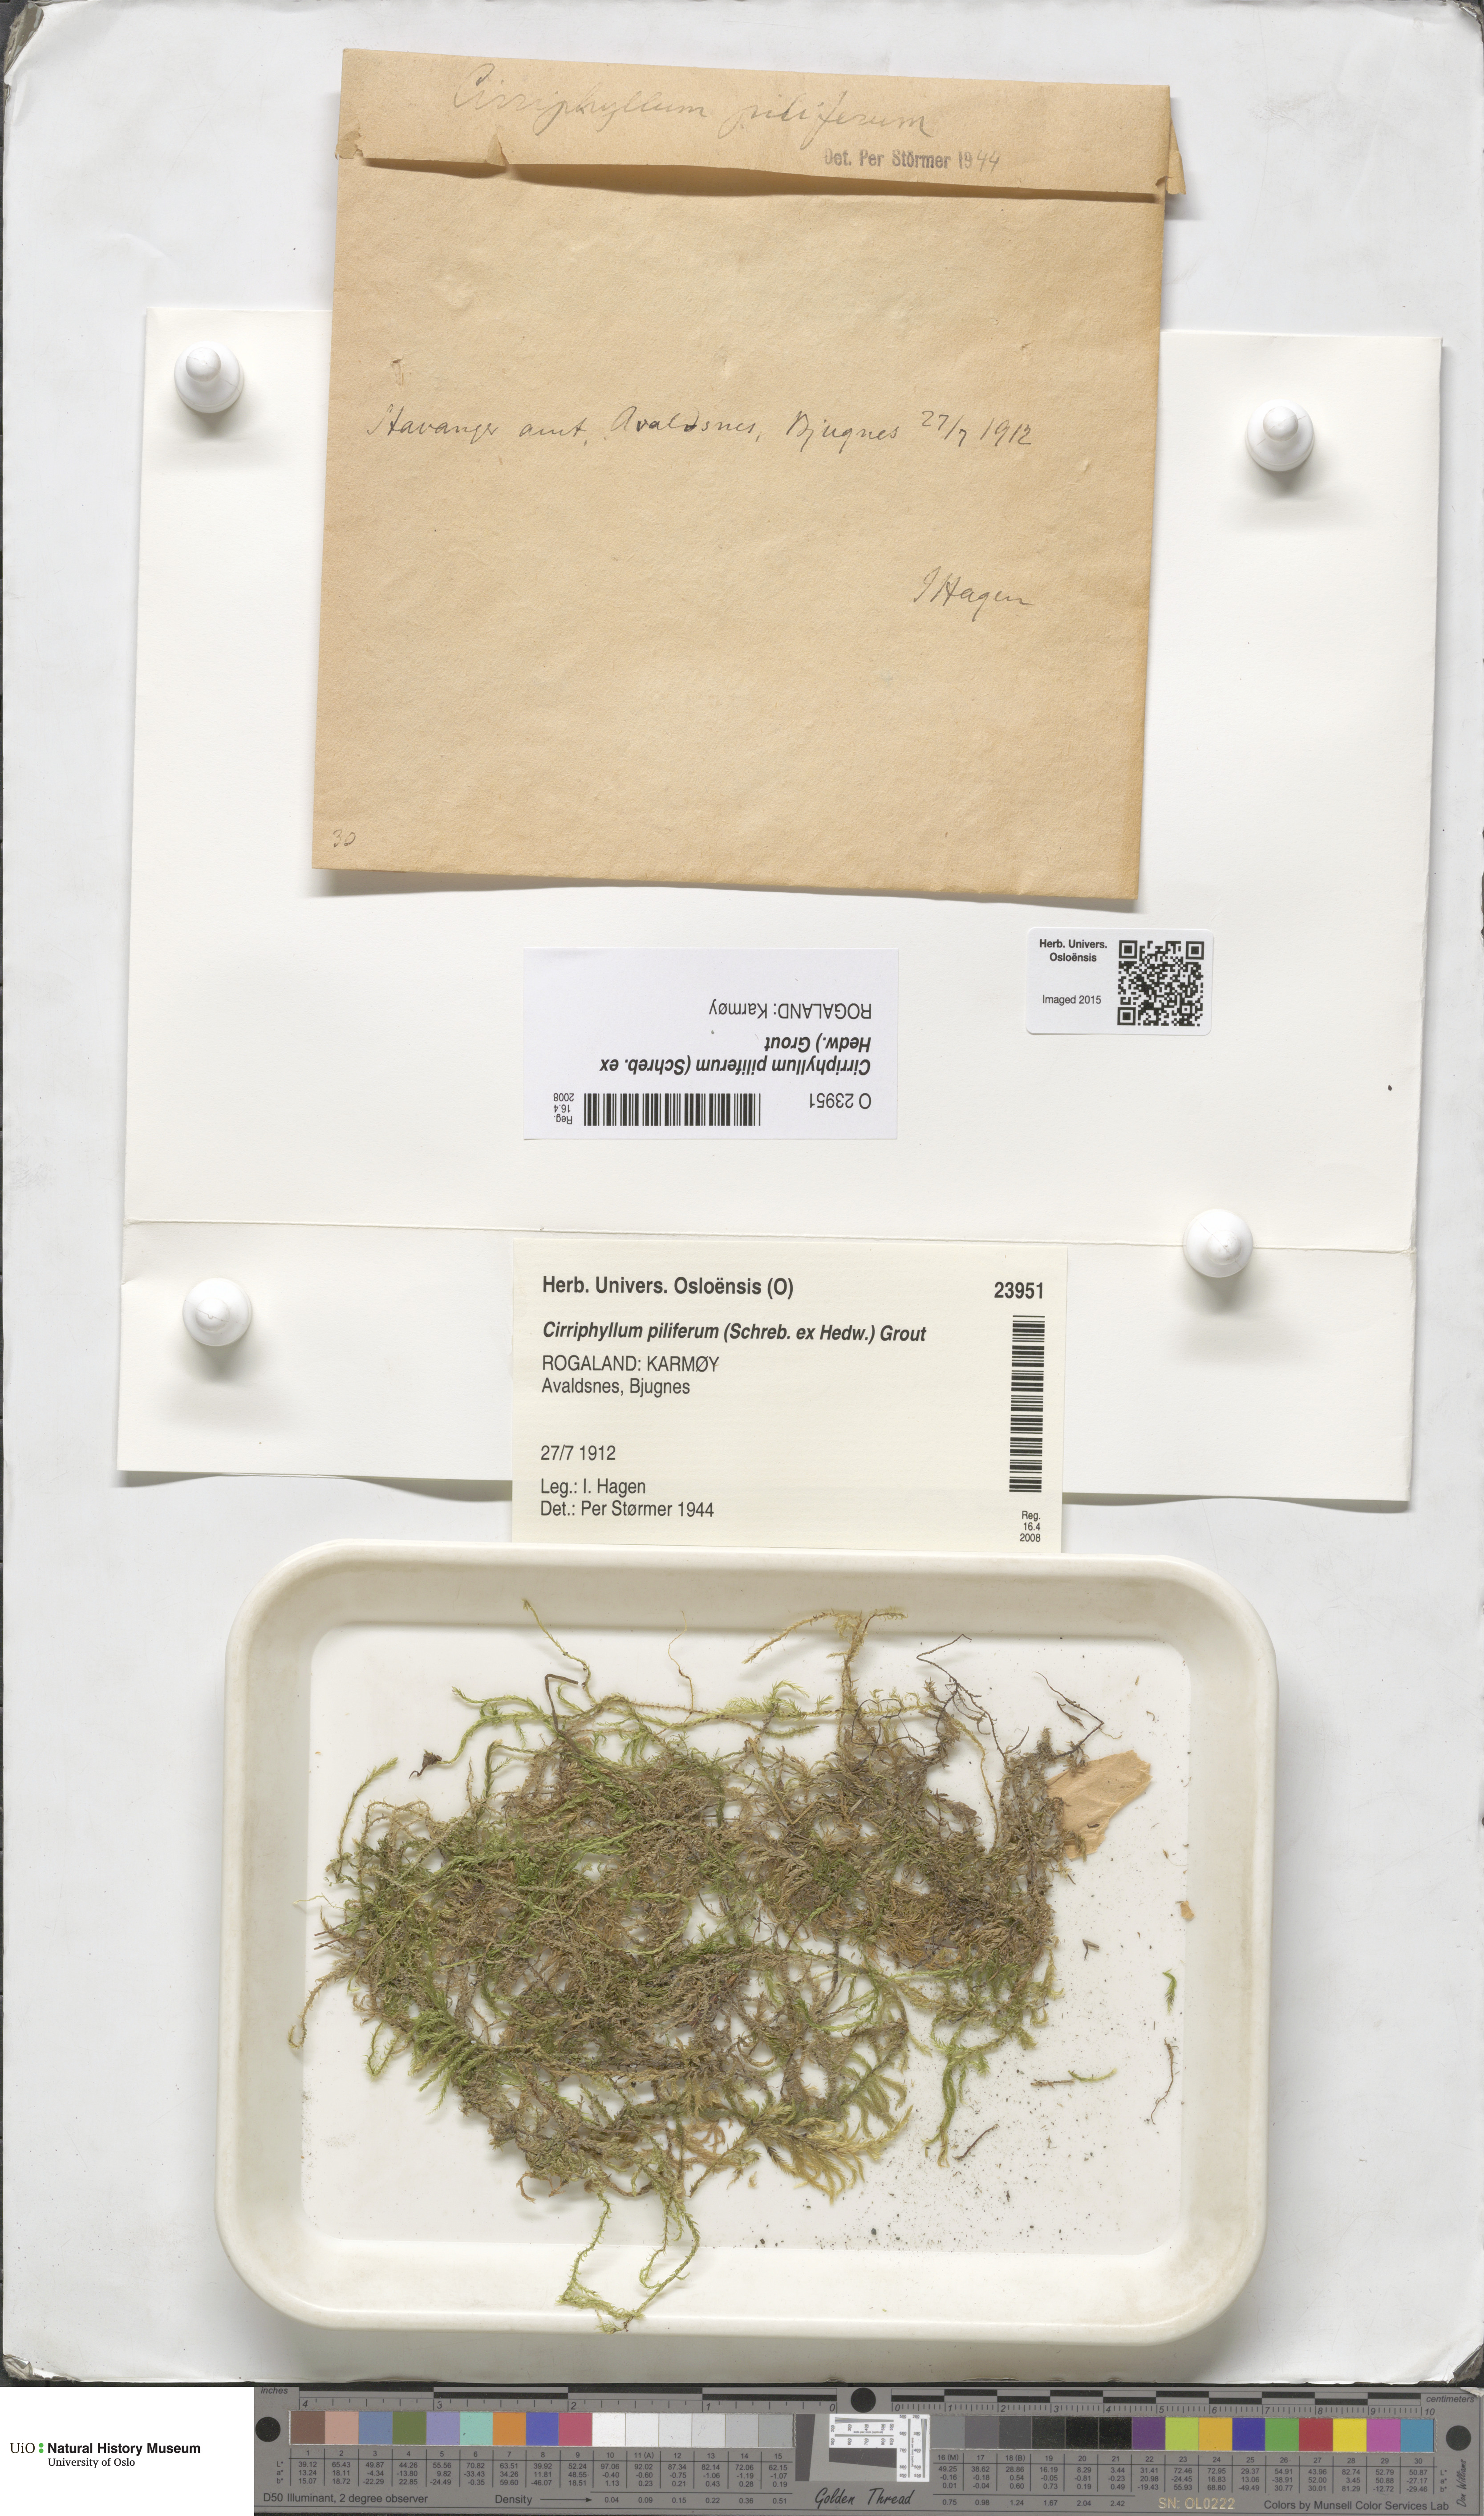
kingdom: Plantae
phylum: Bryophyta
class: Bryopsida
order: Hypnales
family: Brachytheciaceae
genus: Cirriphyllum
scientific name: Cirriphyllum piliferum
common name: Hair-pointed moss
